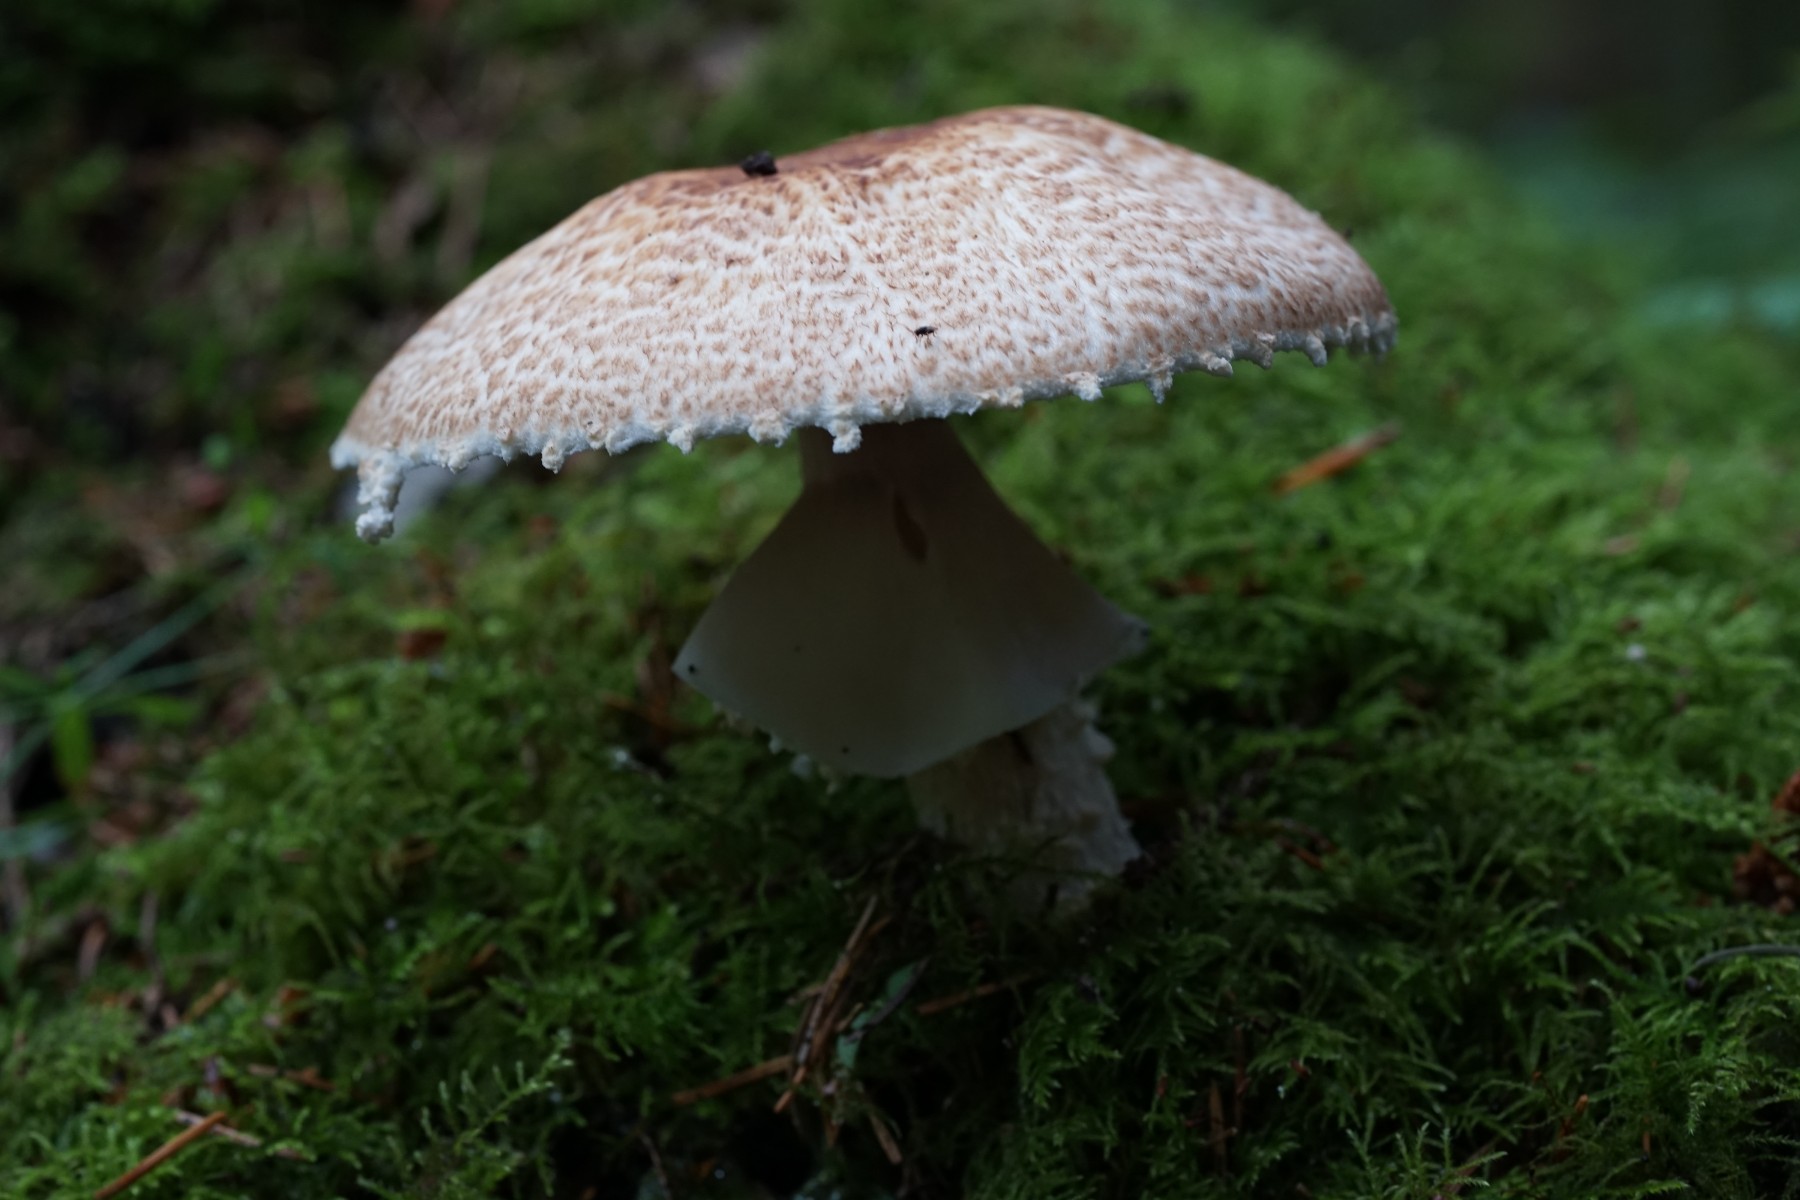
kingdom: Fungi
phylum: Basidiomycota
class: Agaricomycetes
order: Agaricales
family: Agaricaceae
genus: Agaricus
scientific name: Agaricus augustus
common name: prægtig champignon
